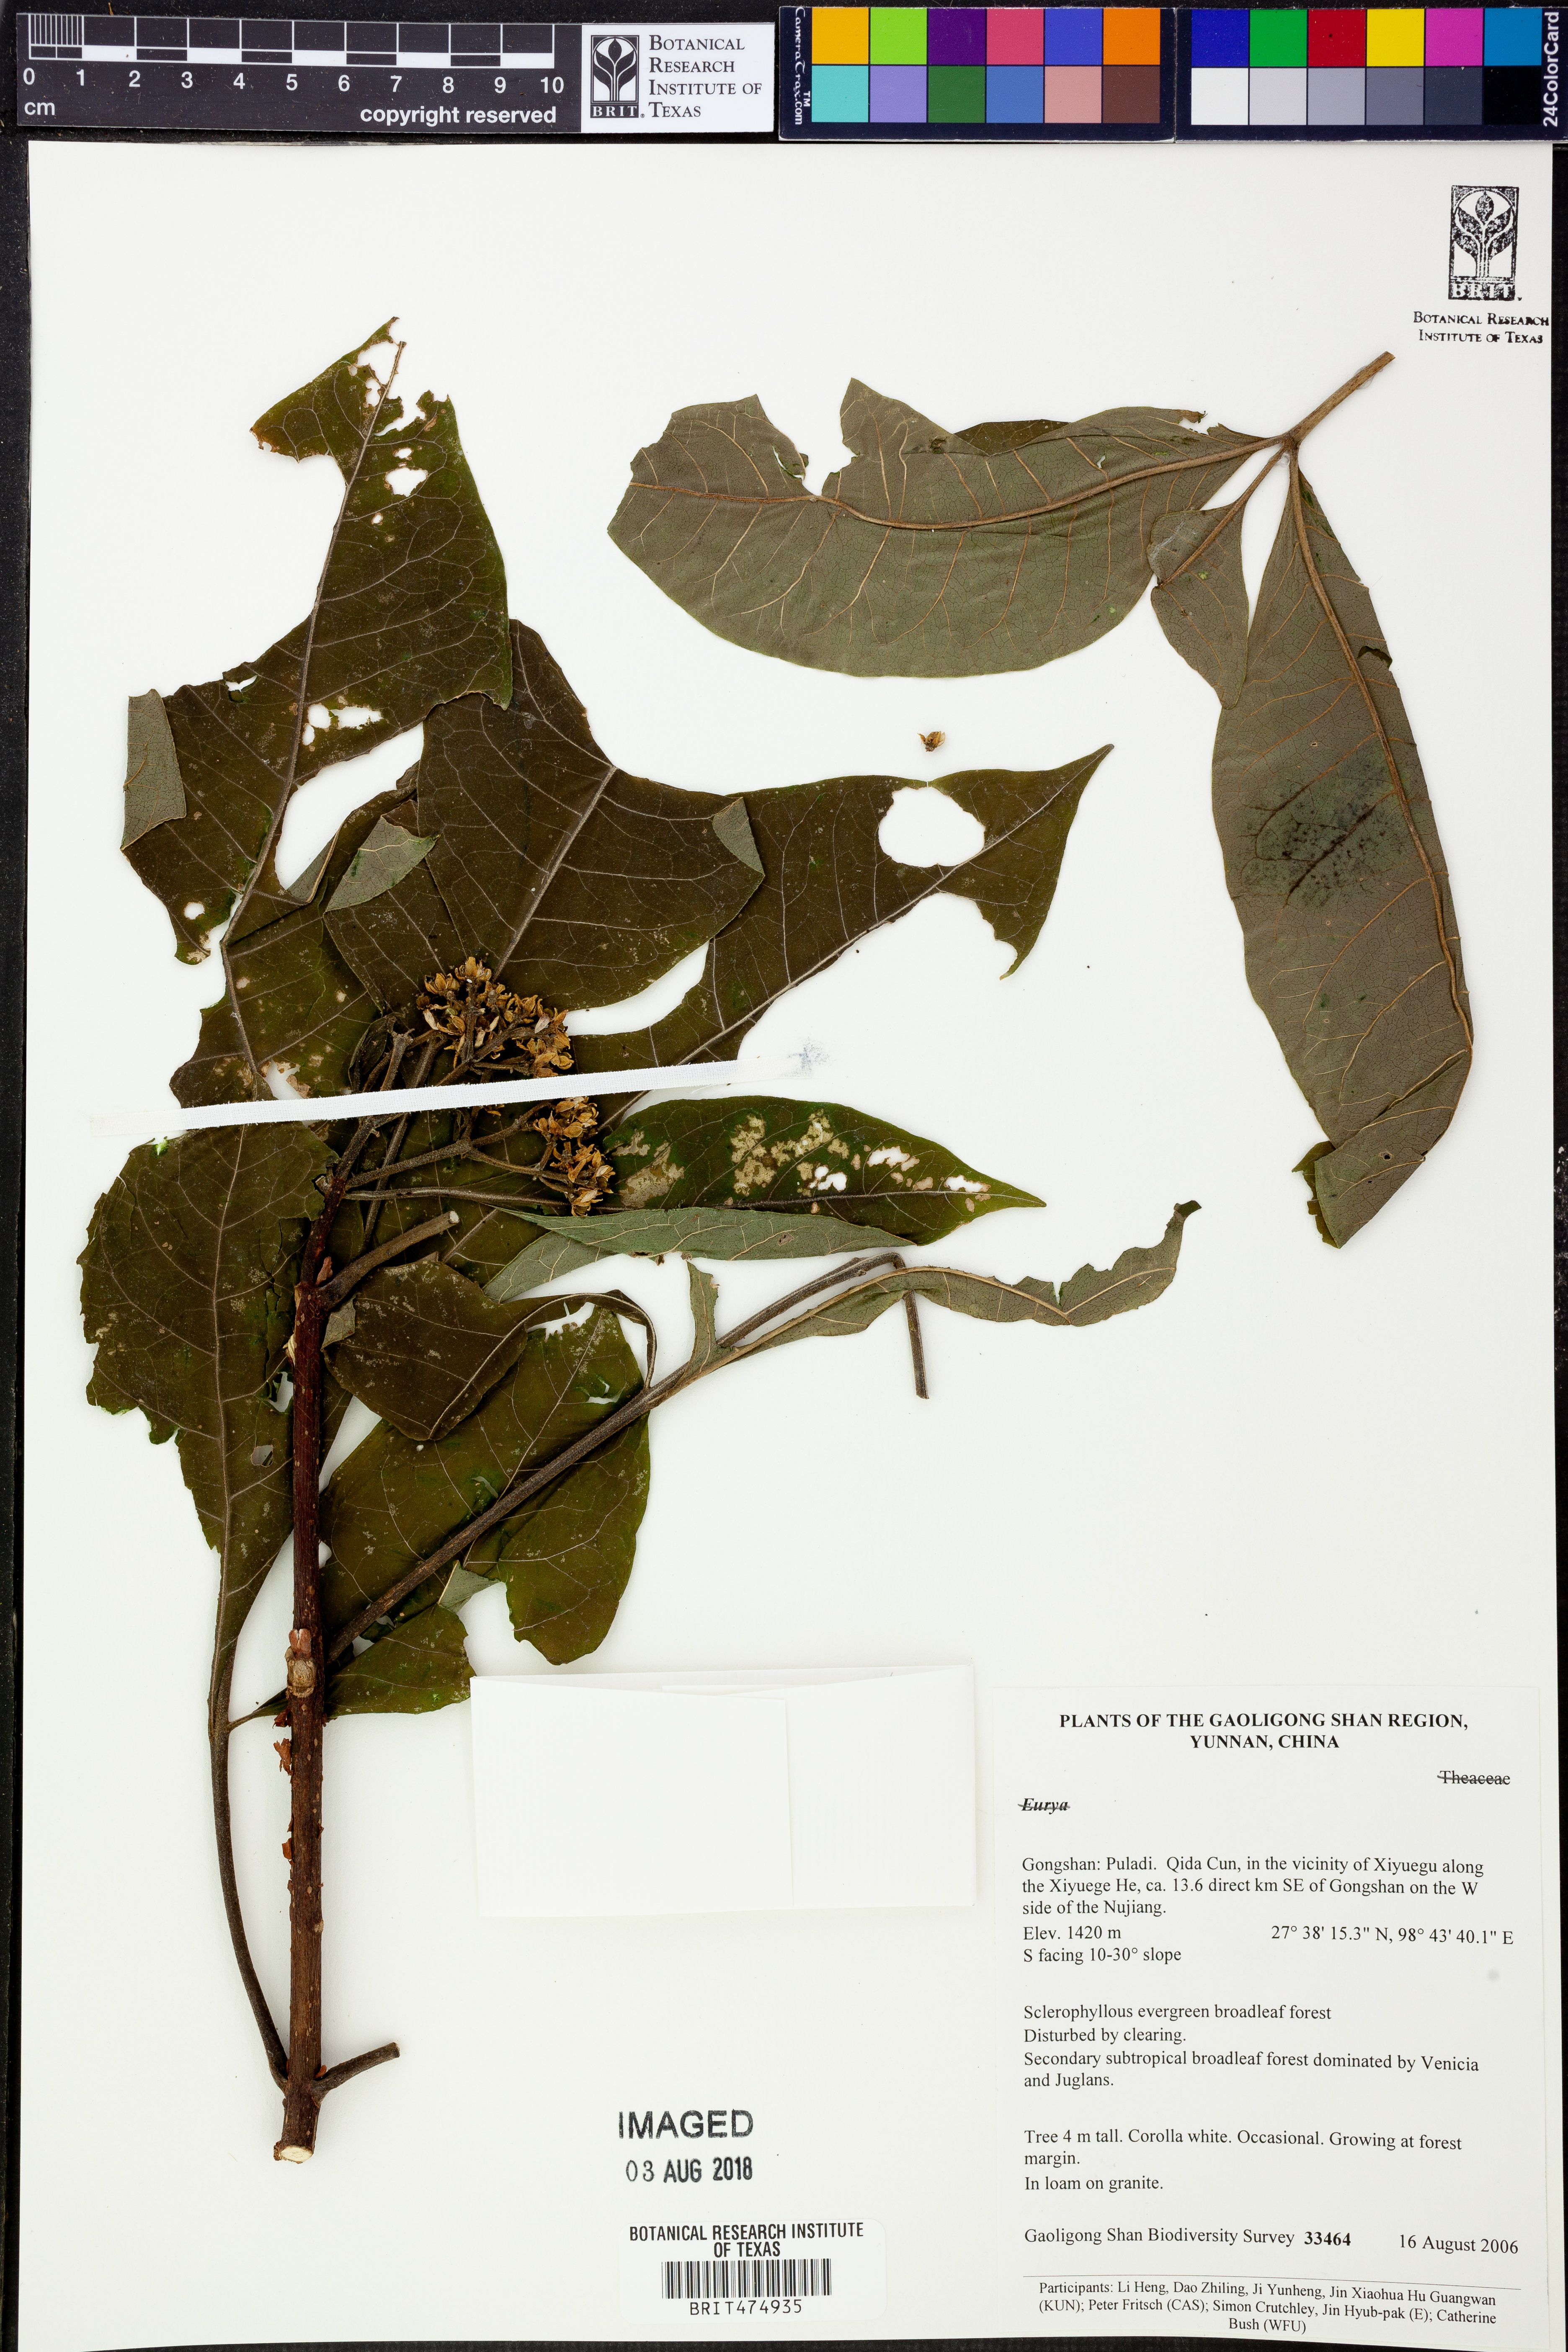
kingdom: Plantae
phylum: Tracheophyta
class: Magnoliopsida
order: Ericales
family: Pentaphylacaceae
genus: Eurya
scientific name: Eurya
